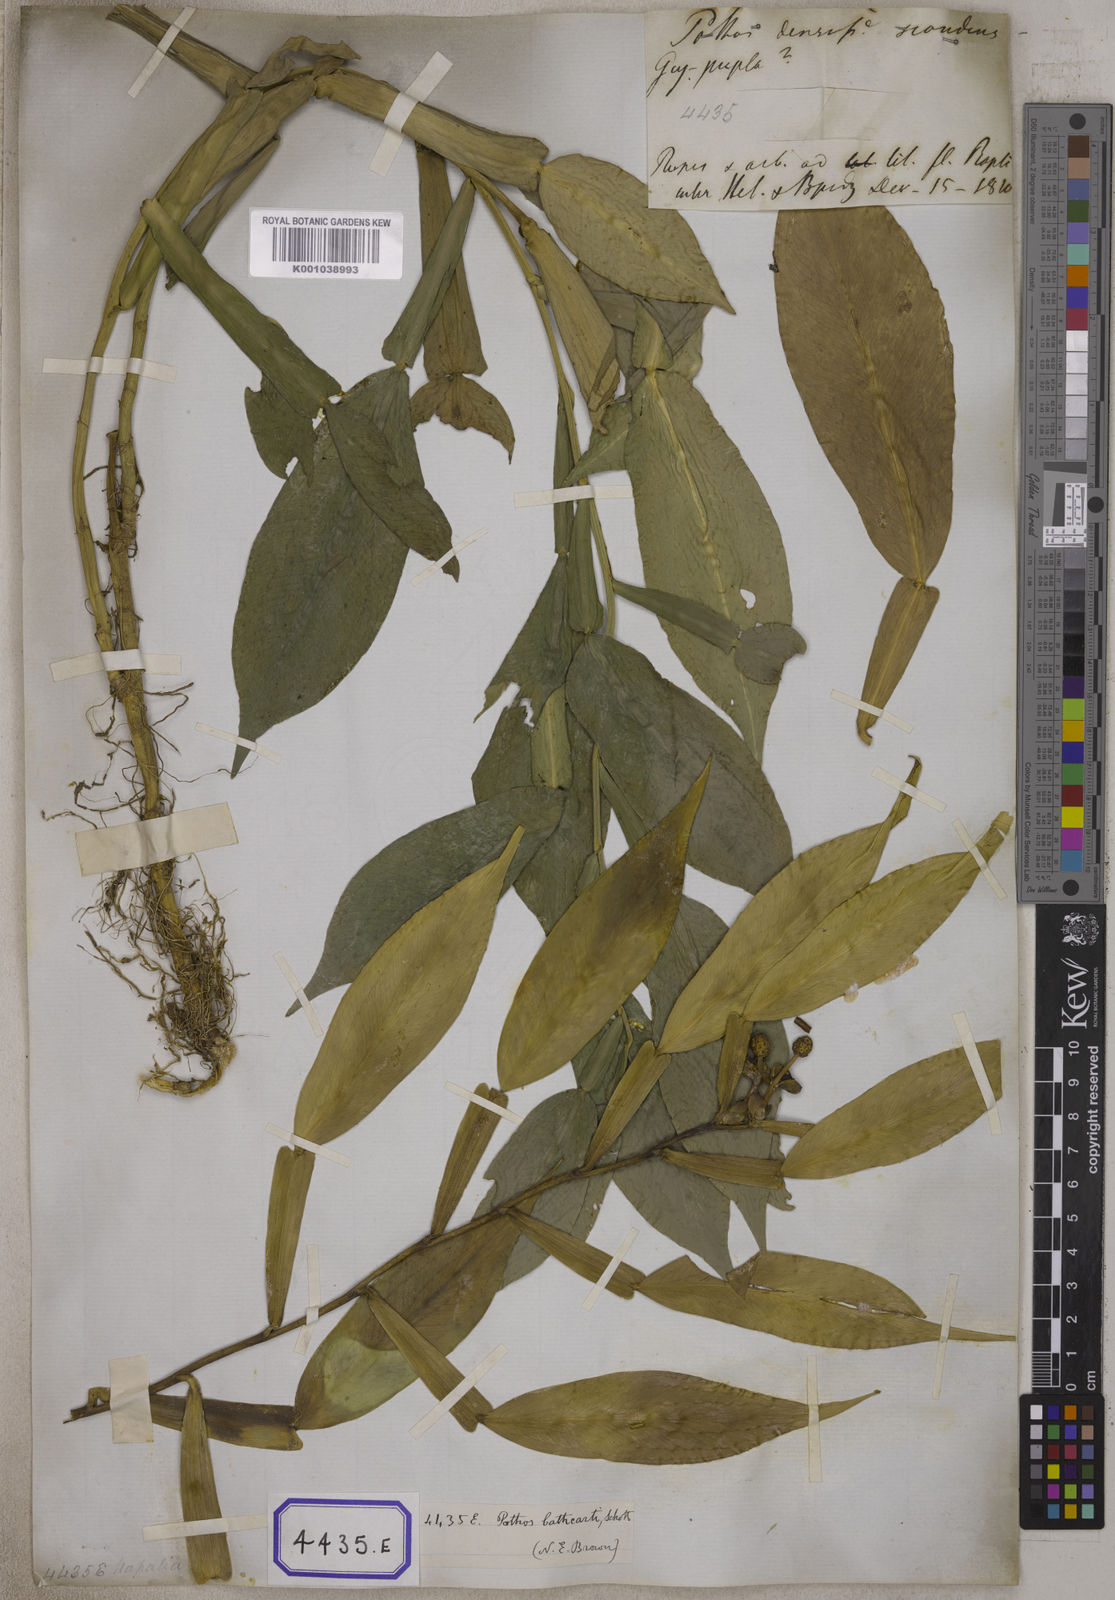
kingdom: Plantae
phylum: Tracheophyta
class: Liliopsida
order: Alismatales
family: Araceae
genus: Pothos
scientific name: Pothos scandens
